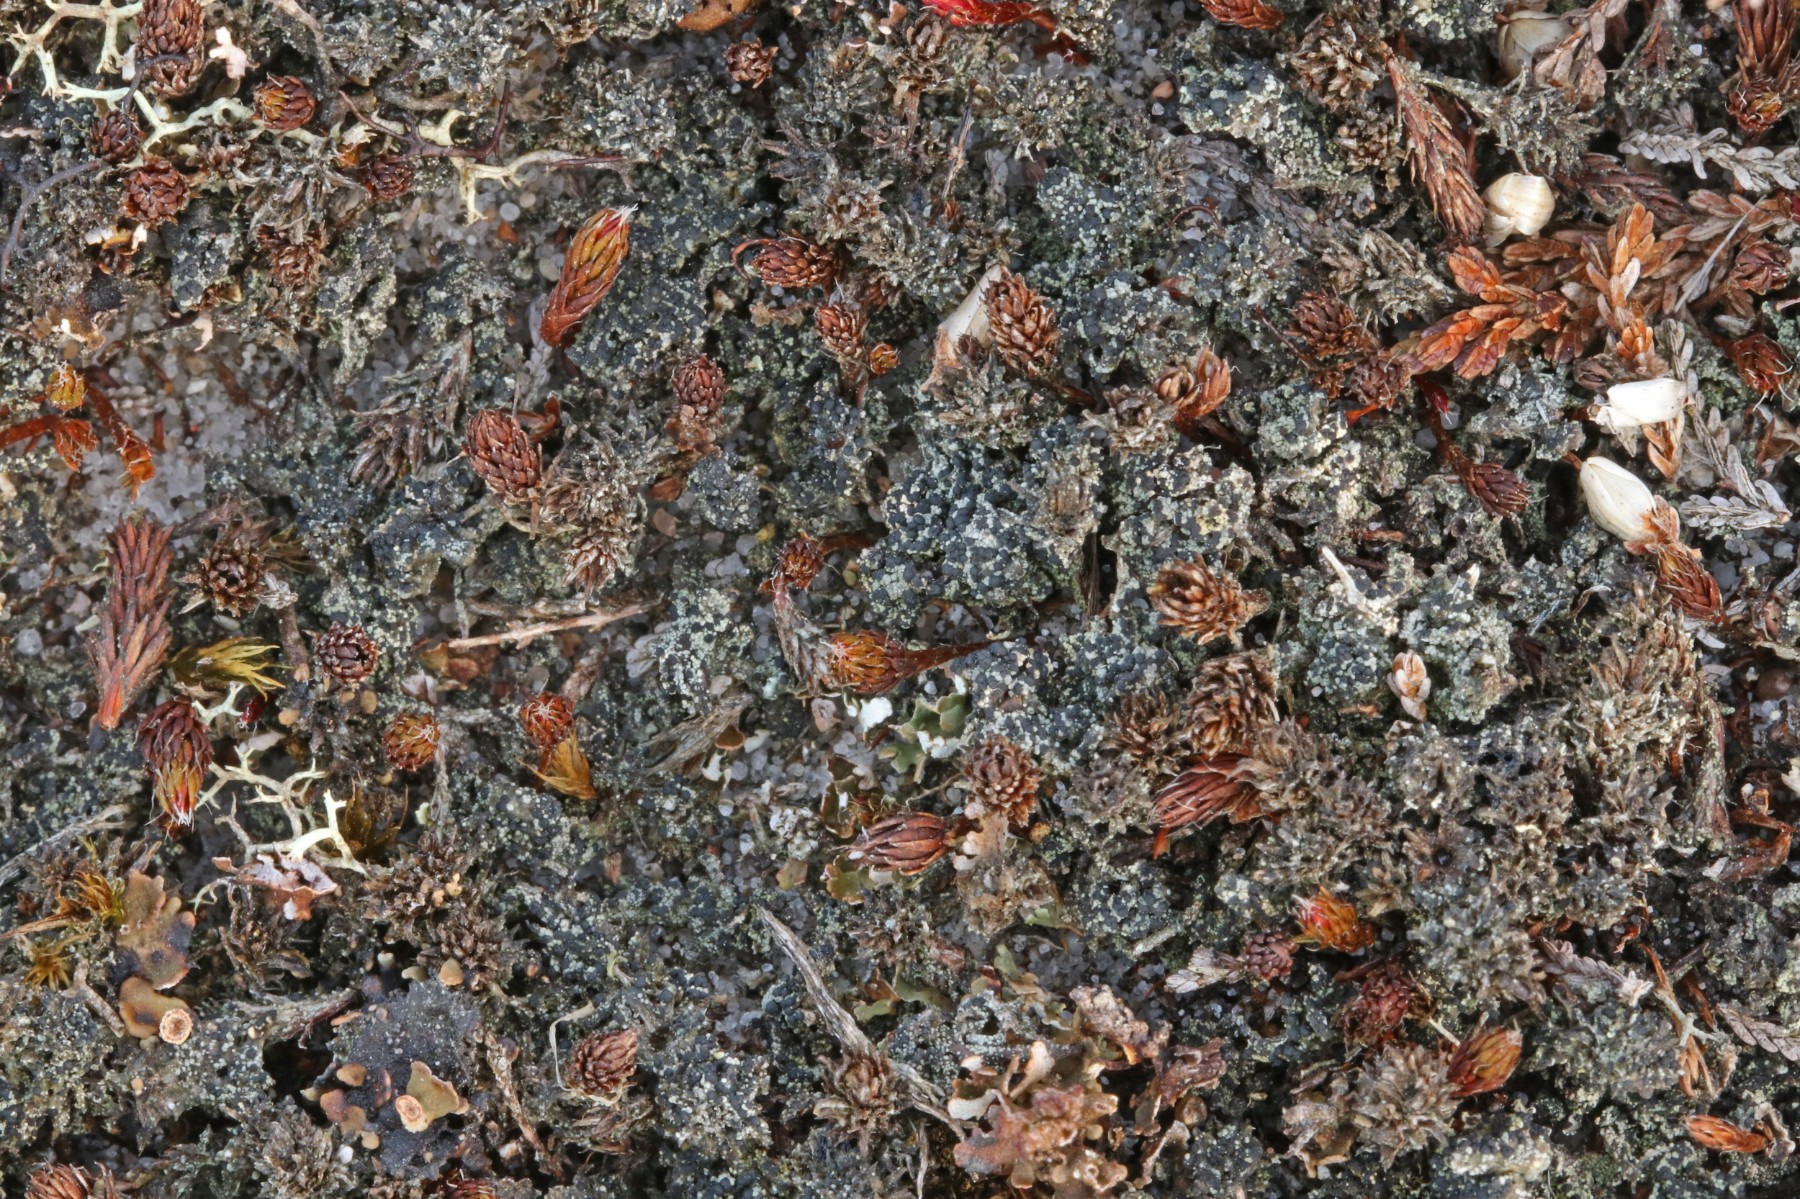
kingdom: Fungi
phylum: Ascomycota
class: Lecanoromycetes
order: Lecanorales
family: Byssolomataceae
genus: Micarea
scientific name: Micarea lignaria
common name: tørve-knaplav
